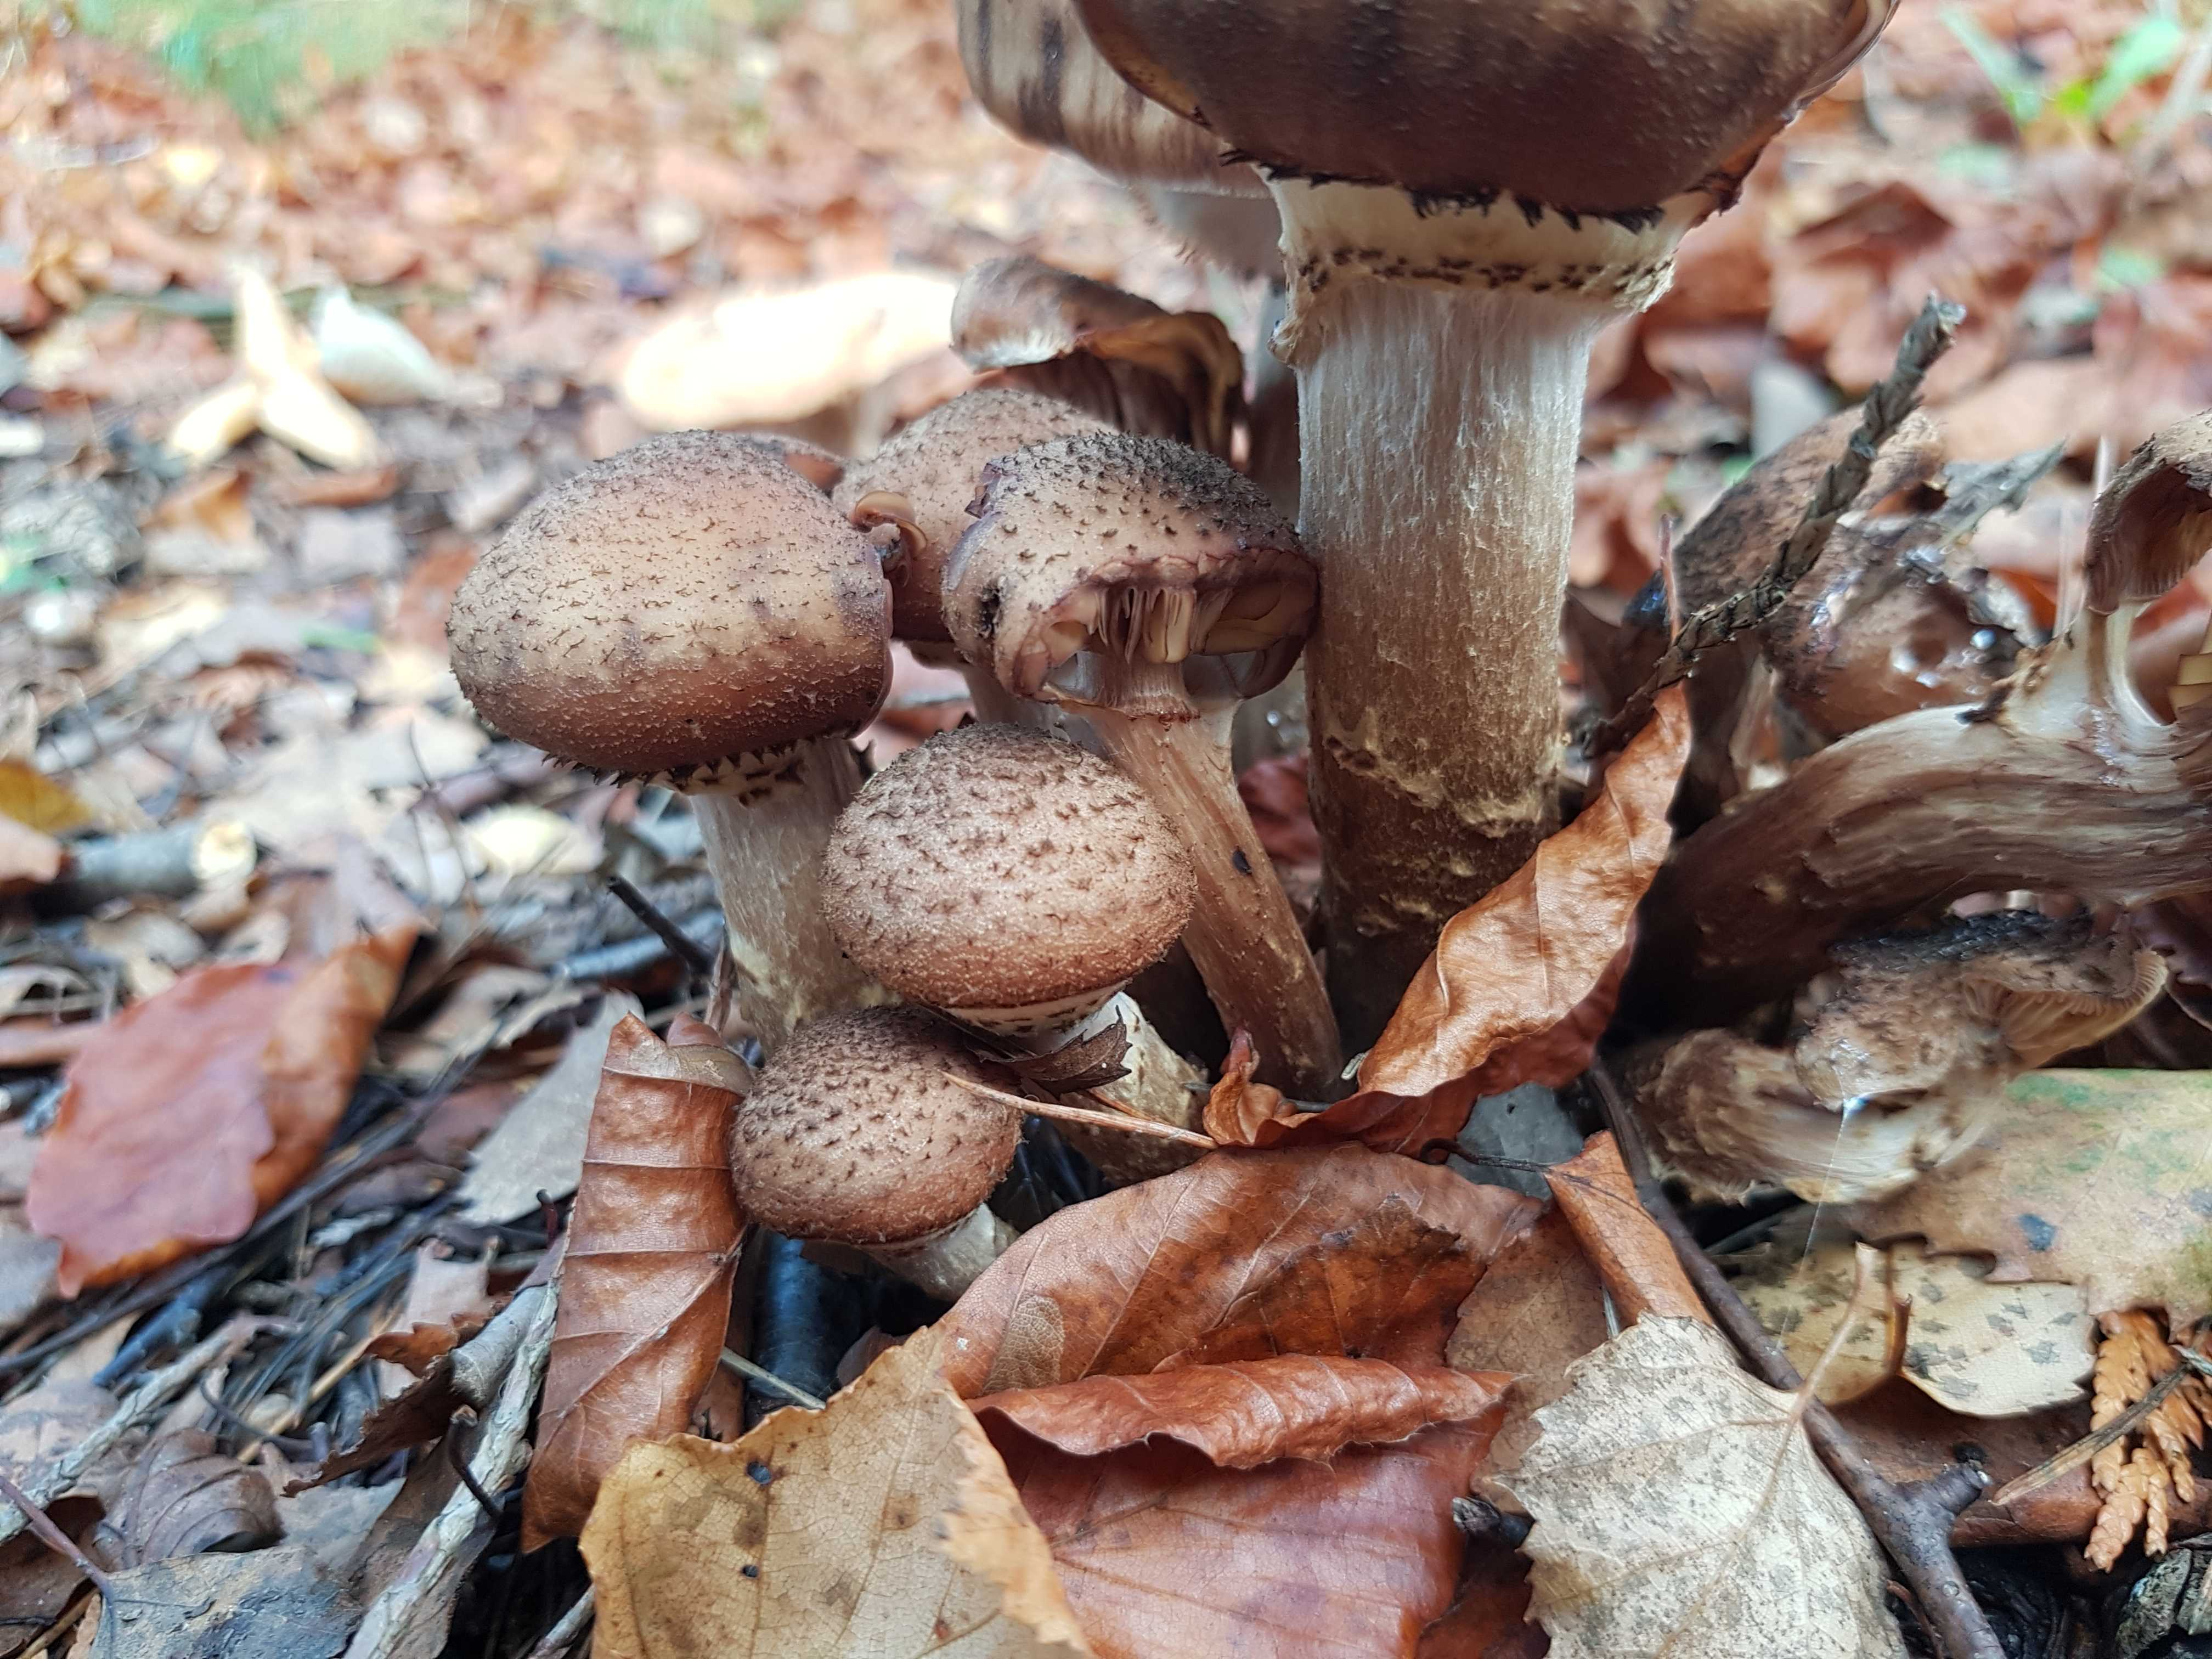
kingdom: Fungi
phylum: Basidiomycota
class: Agaricomycetes
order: Agaricales
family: Physalacriaceae
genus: Armillaria
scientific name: Armillaria ostoyae
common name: mørk honningsvamp
